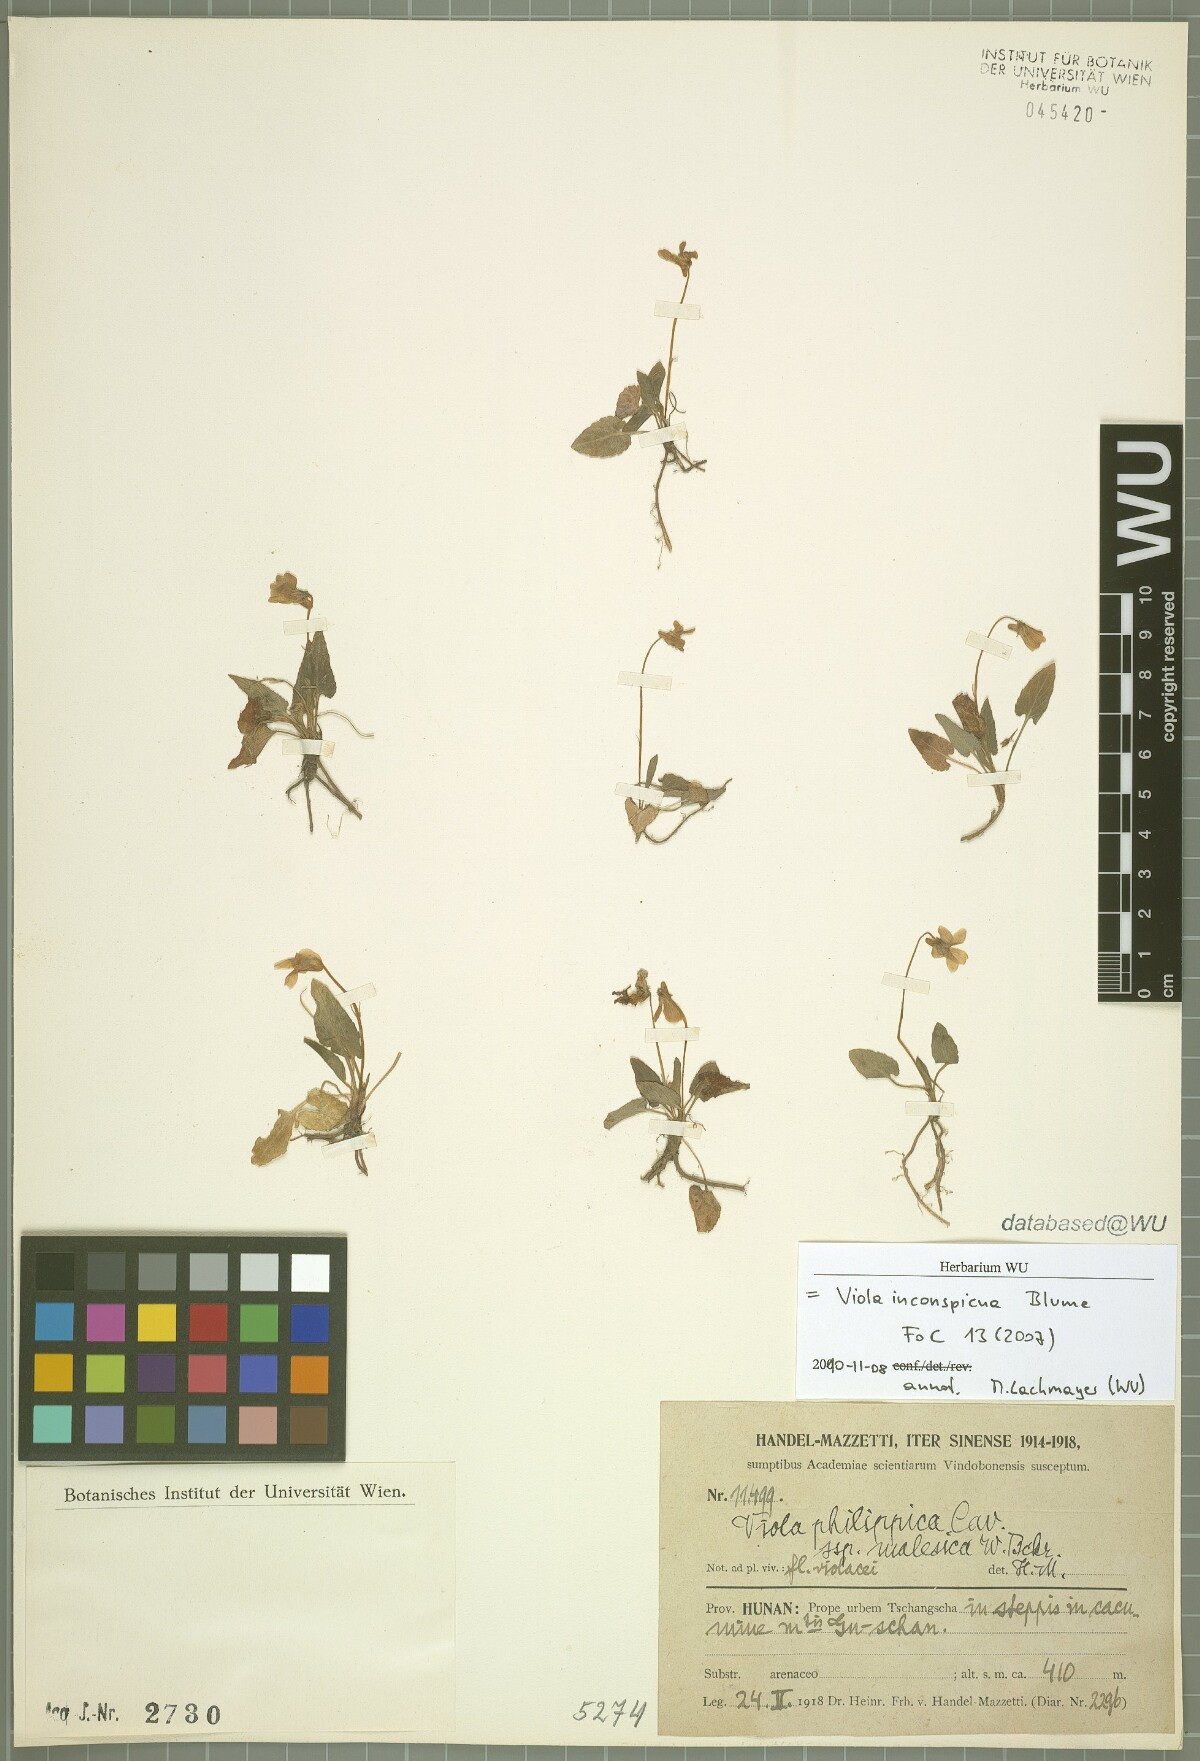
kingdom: Plantae
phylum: Tracheophyta
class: Magnoliopsida
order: Malpighiales
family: Violaceae
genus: Viola
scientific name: Viola inconspicua
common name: Long sepal violet
